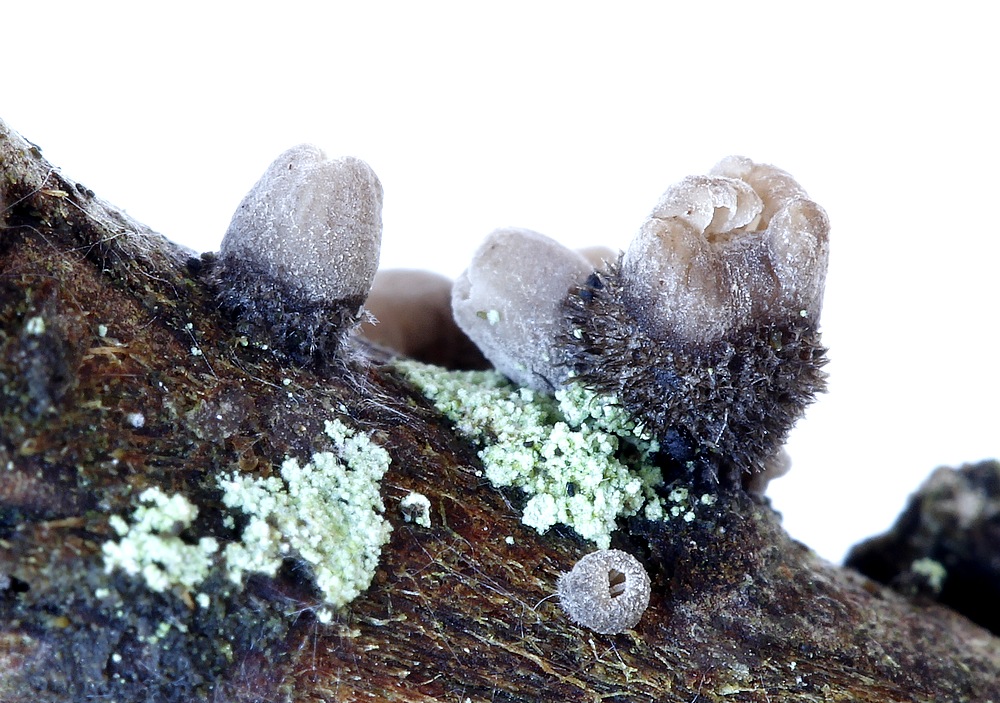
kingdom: Fungi
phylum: Basidiomycota
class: Agaricomycetes
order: Agaricales
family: Pleurotaceae
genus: Resupinatus
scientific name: Resupinatus trichotis
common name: mørkfiltet barkhat
